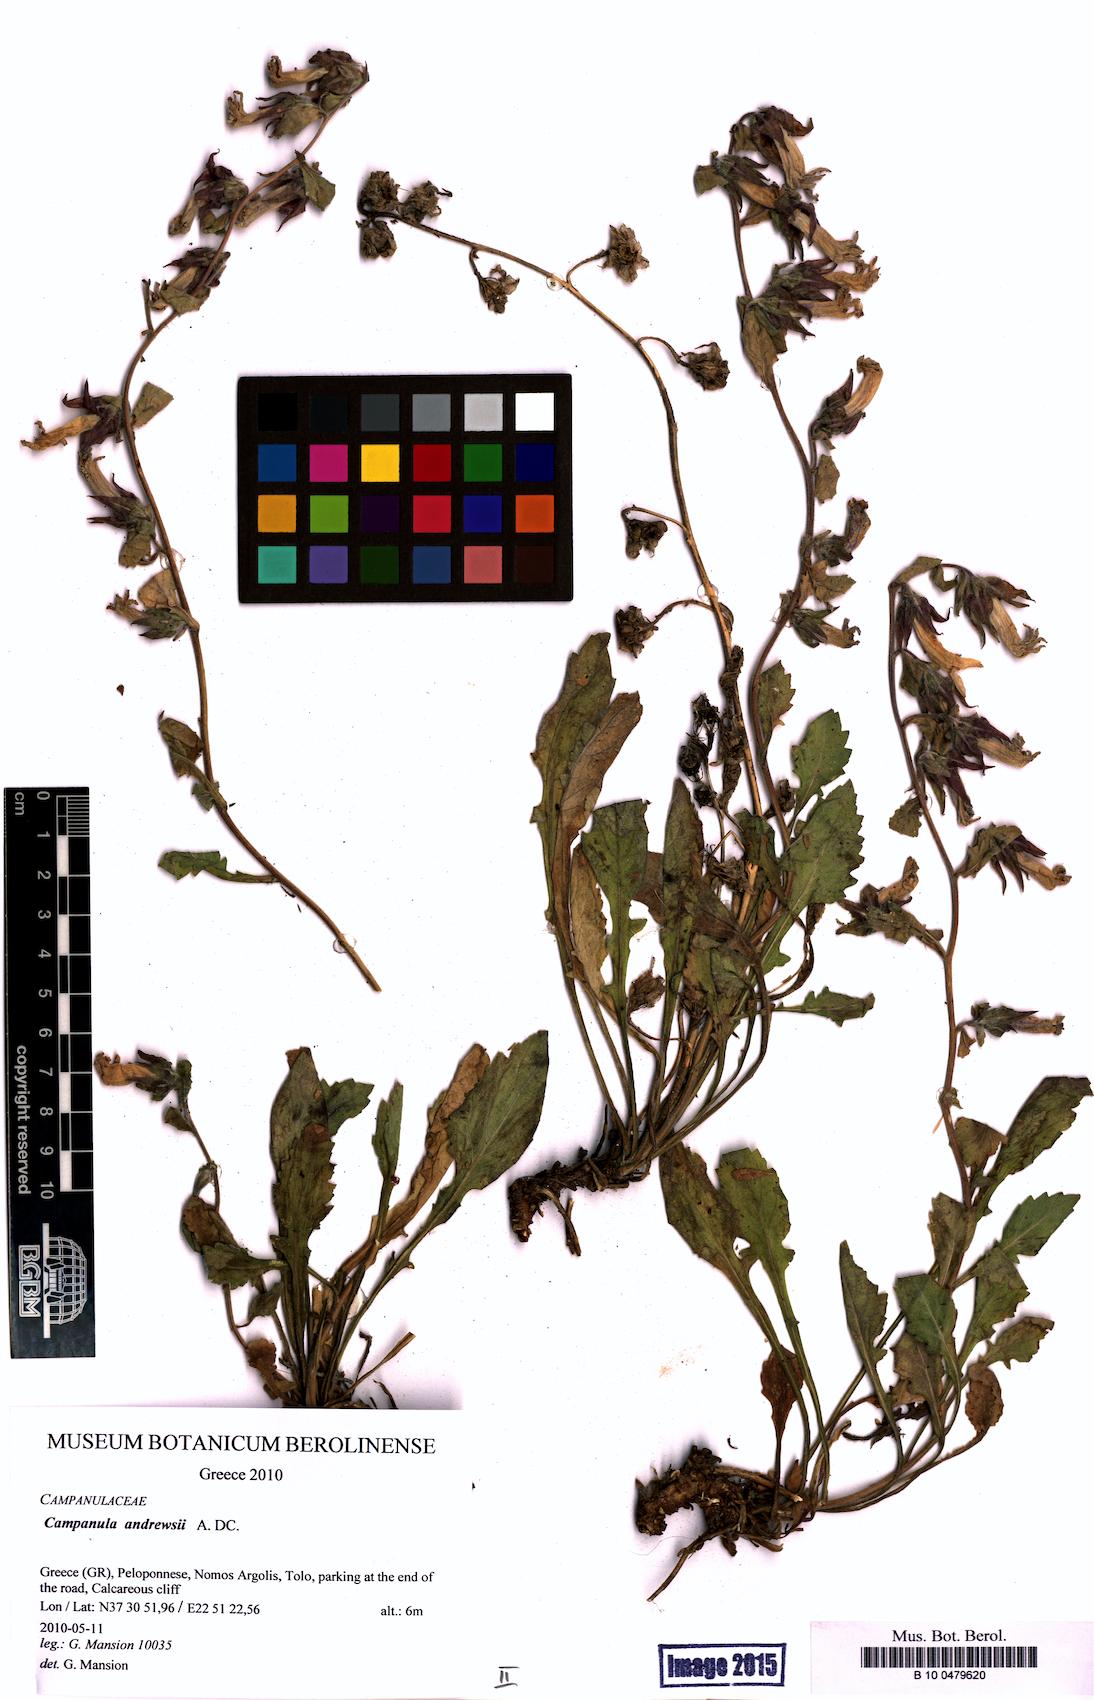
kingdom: Plantae
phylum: Tracheophyta
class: Magnoliopsida
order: Asterales
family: Campanulaceae
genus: Campanula
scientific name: Campanula andrewsii
